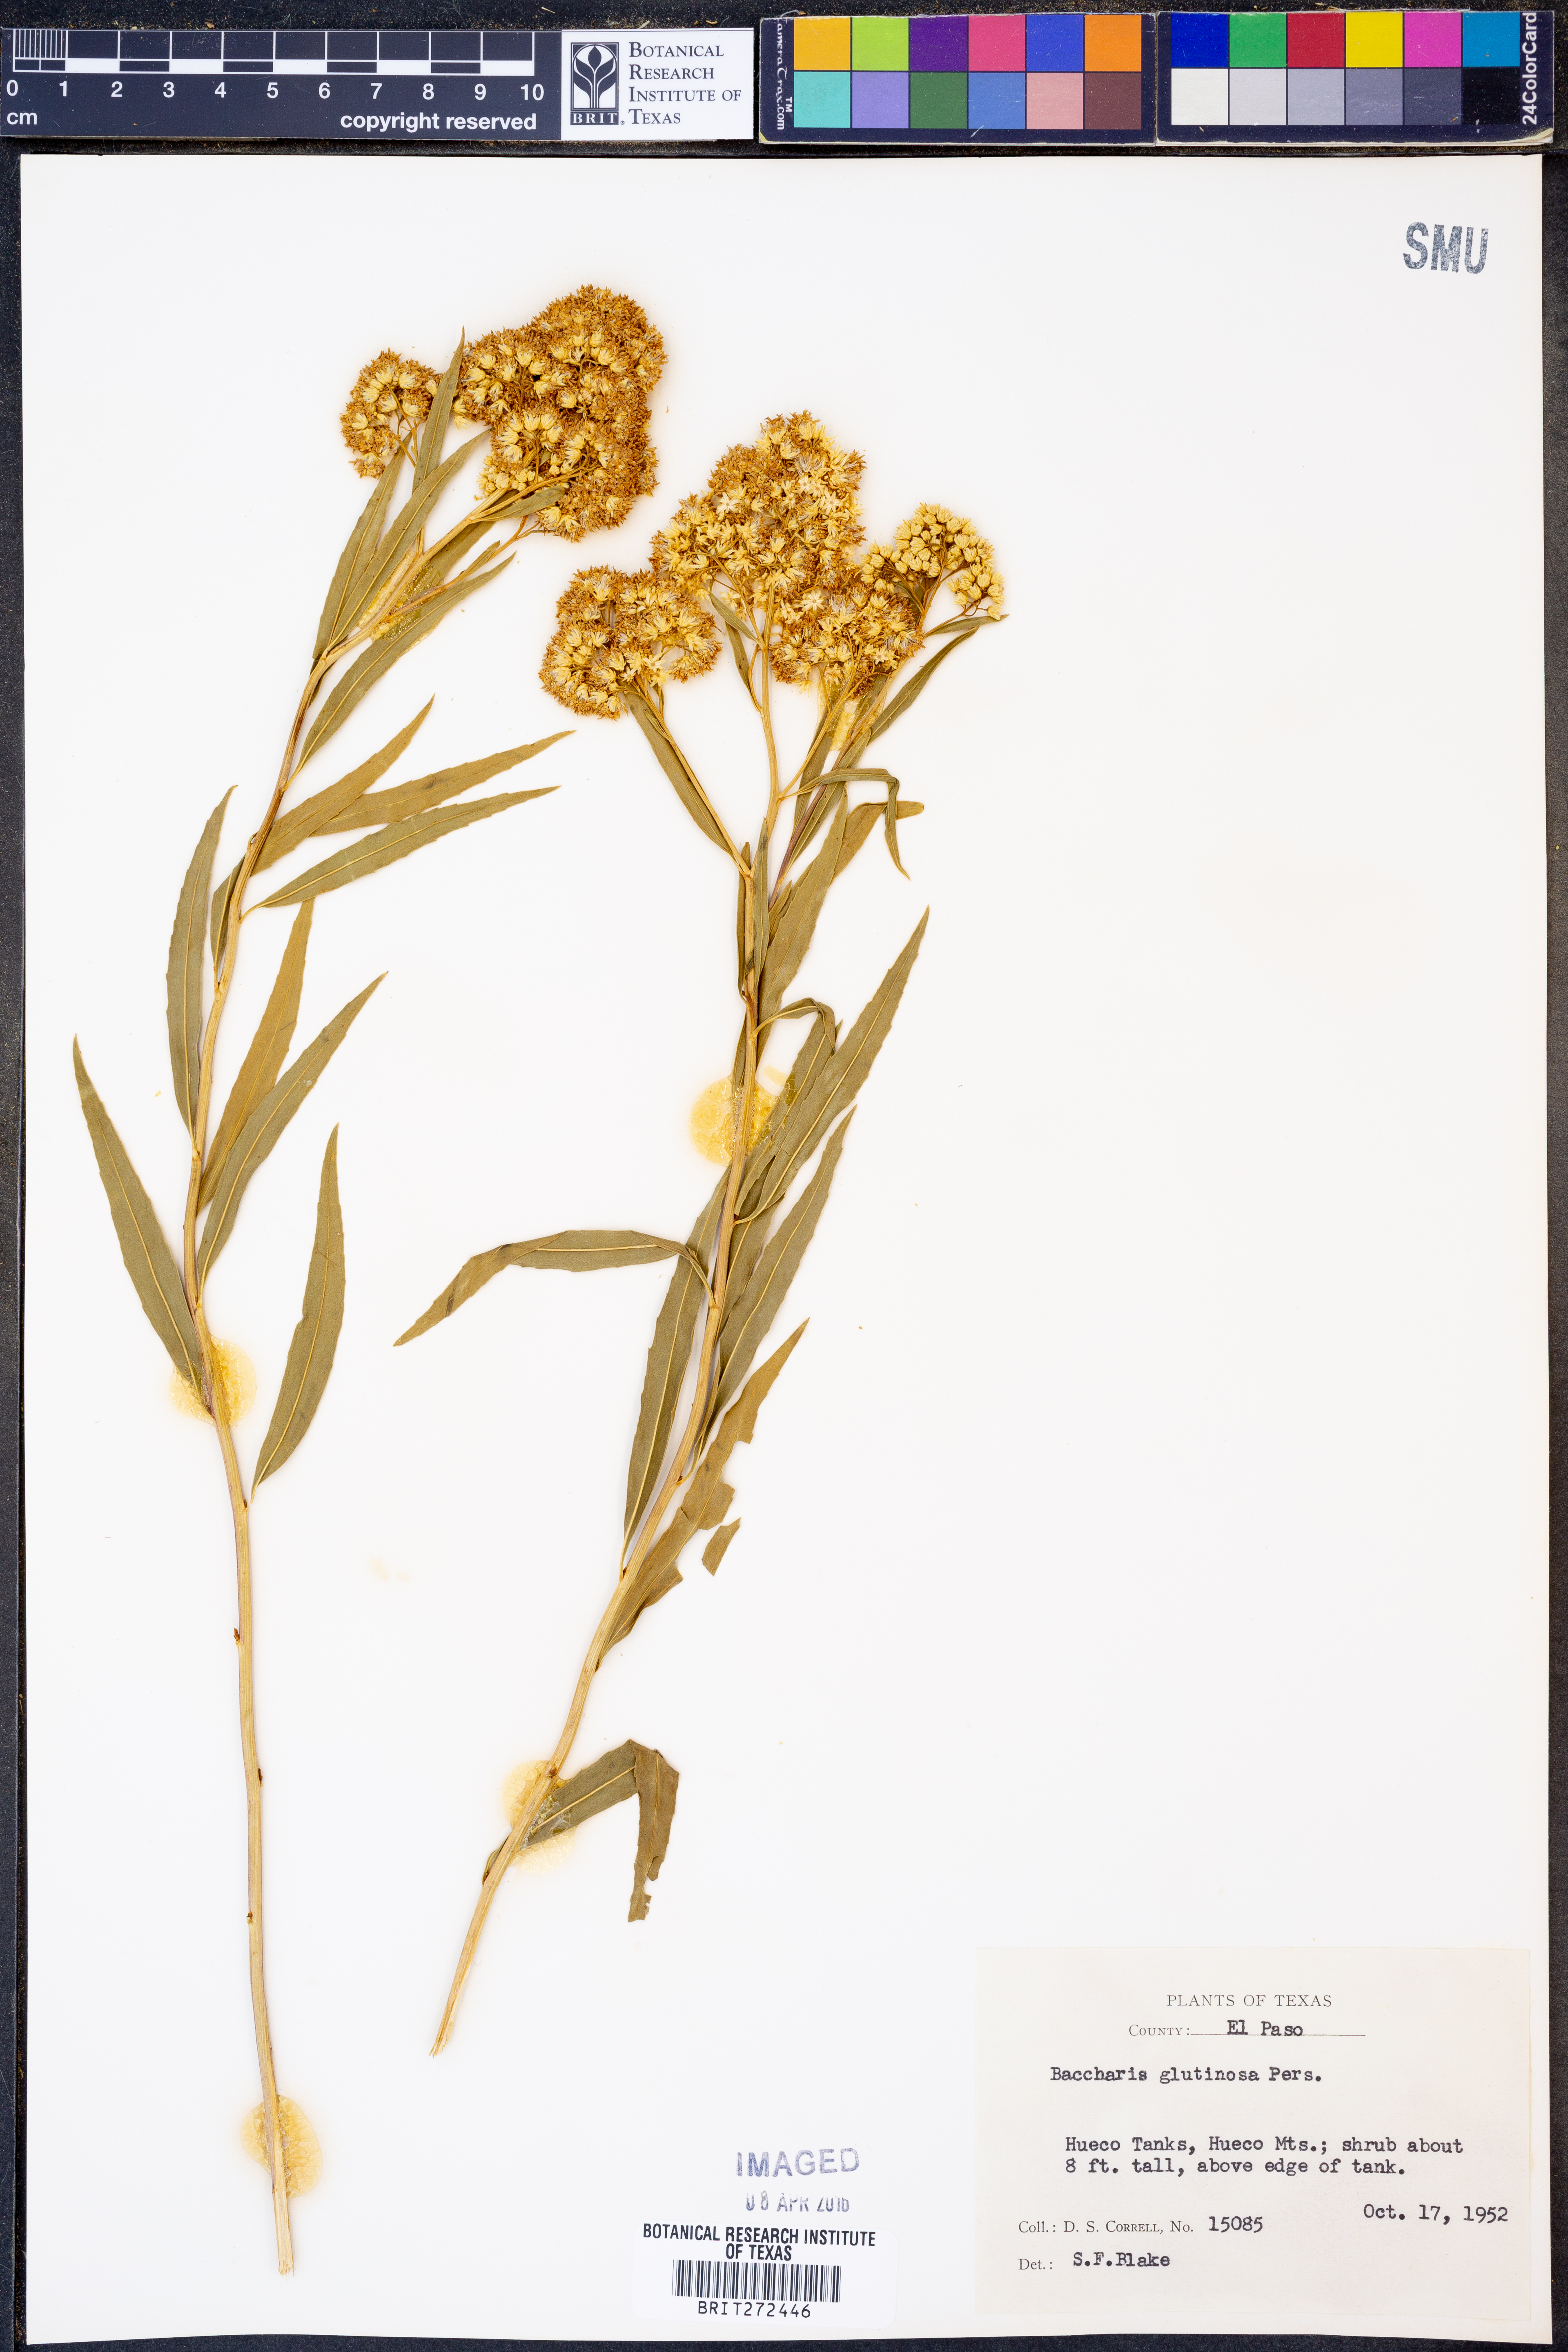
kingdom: Plantae
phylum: Tracheophyta
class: Magnoliopsida
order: Asterales
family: Asteraceae
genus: Baccharis
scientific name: Baccharis glutinosa
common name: Saltmarsh baccharis
